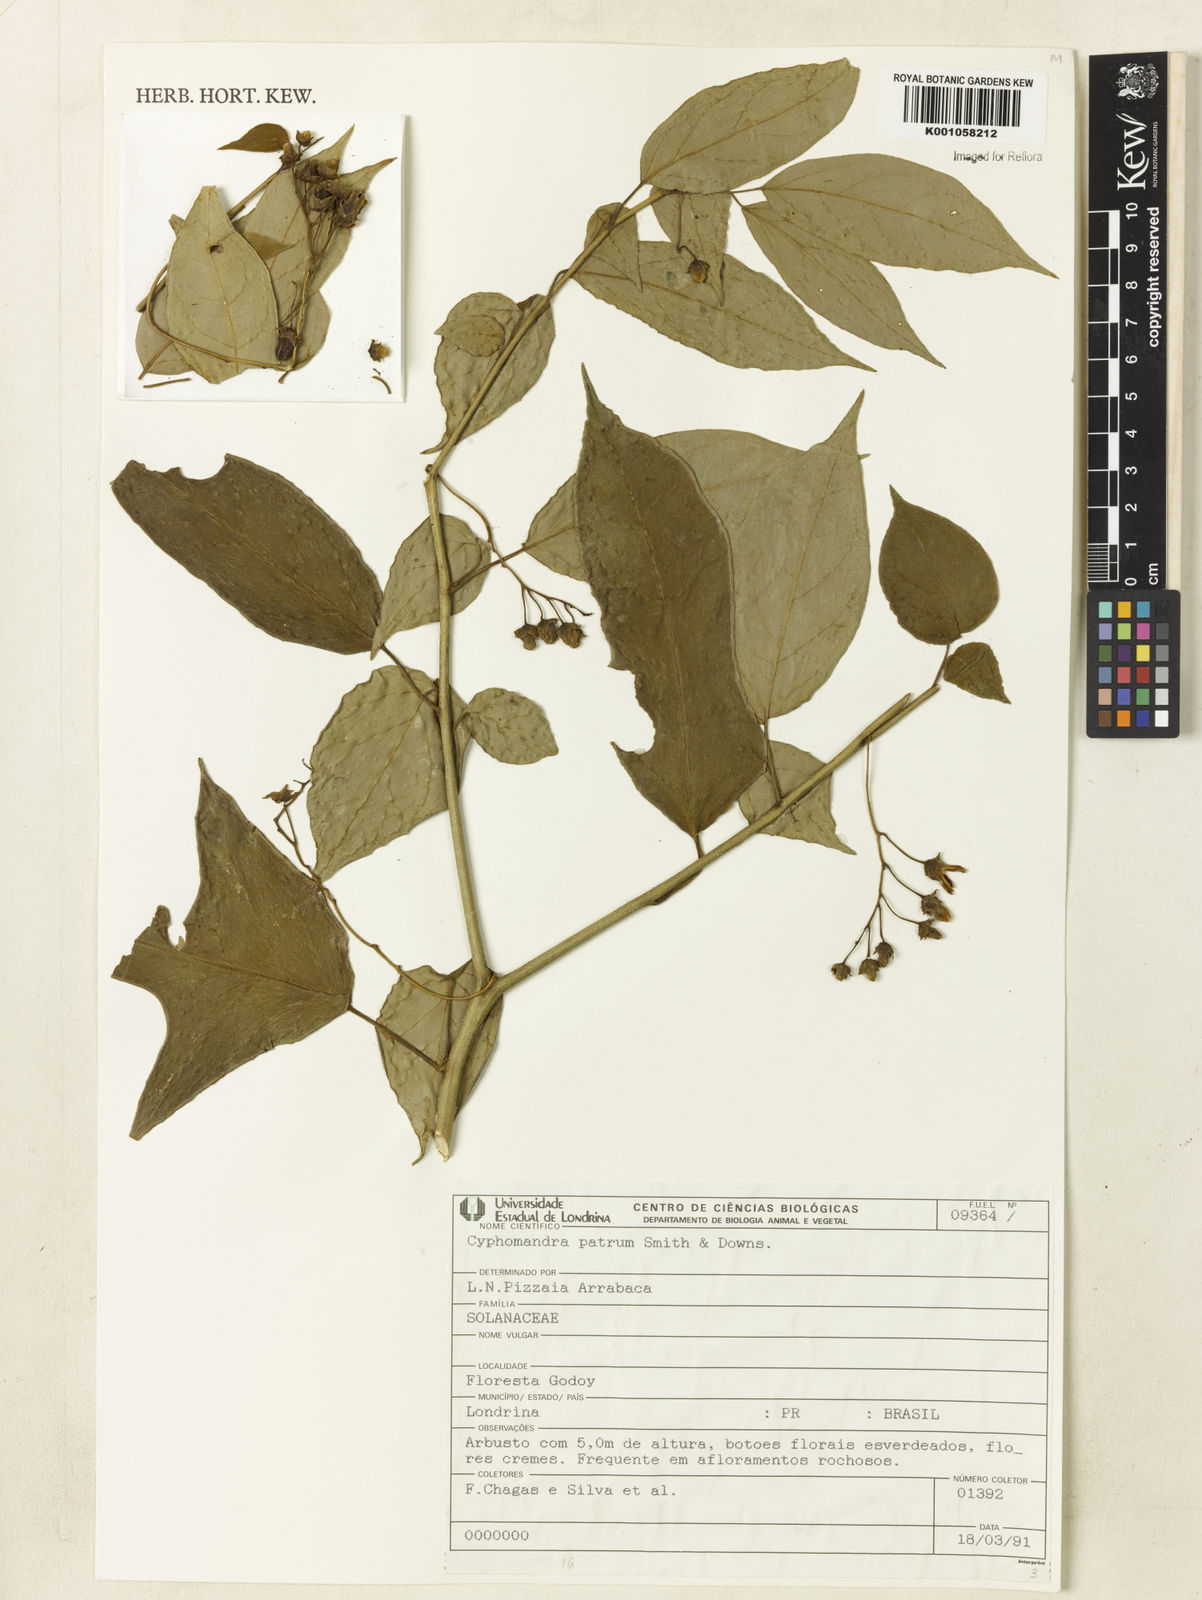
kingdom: Plantae
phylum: Tracheophyta
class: Magnoliopsida
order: Solanales
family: Solanaceae
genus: Solanum
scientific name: Solanum corymbiflorum
